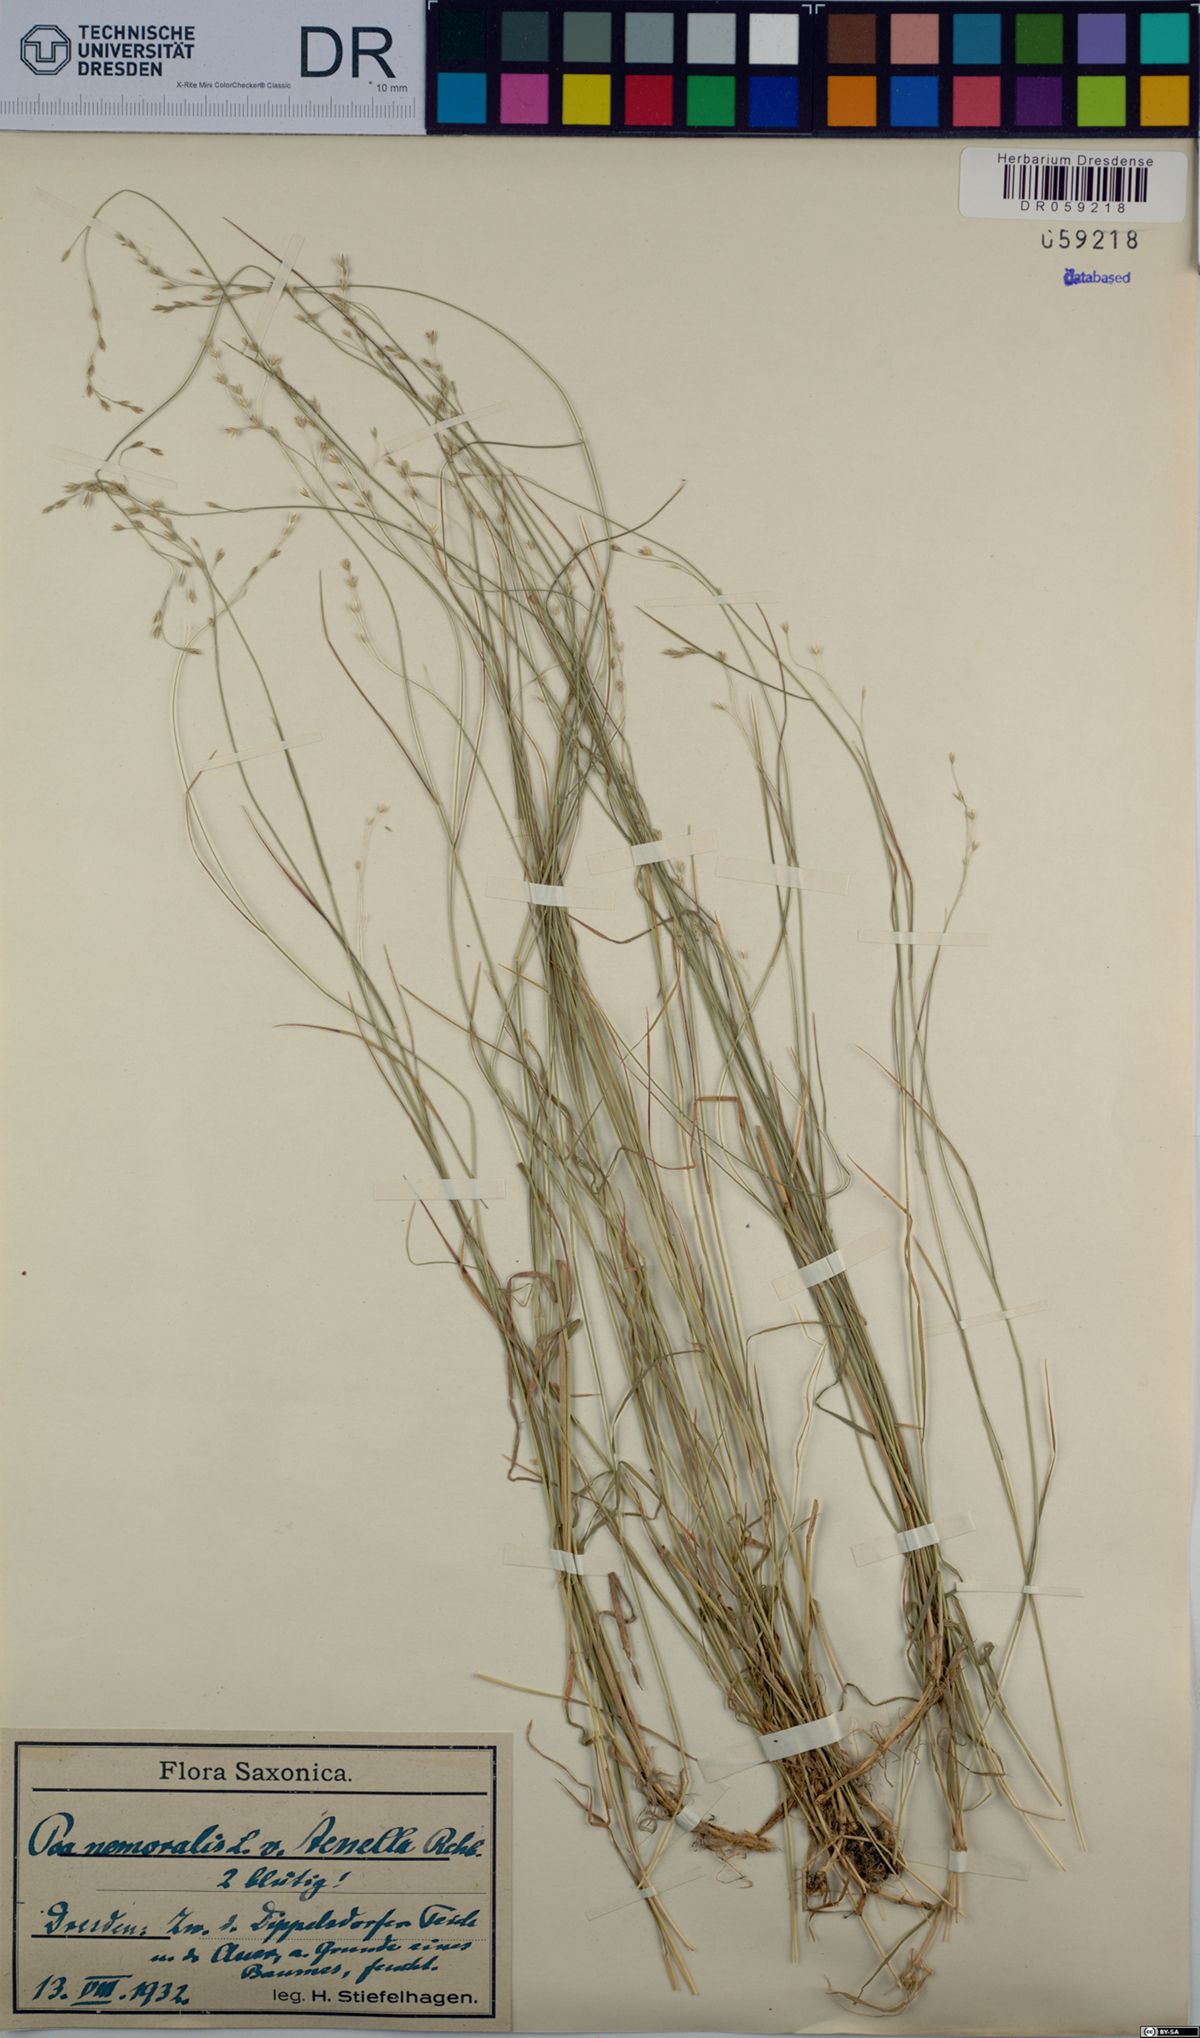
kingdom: Plantae
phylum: Tracheophyta
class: Liliopsida
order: Poales
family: Poaceae
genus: Poa
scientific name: Poa nemoralis
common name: Wood bluegrass
